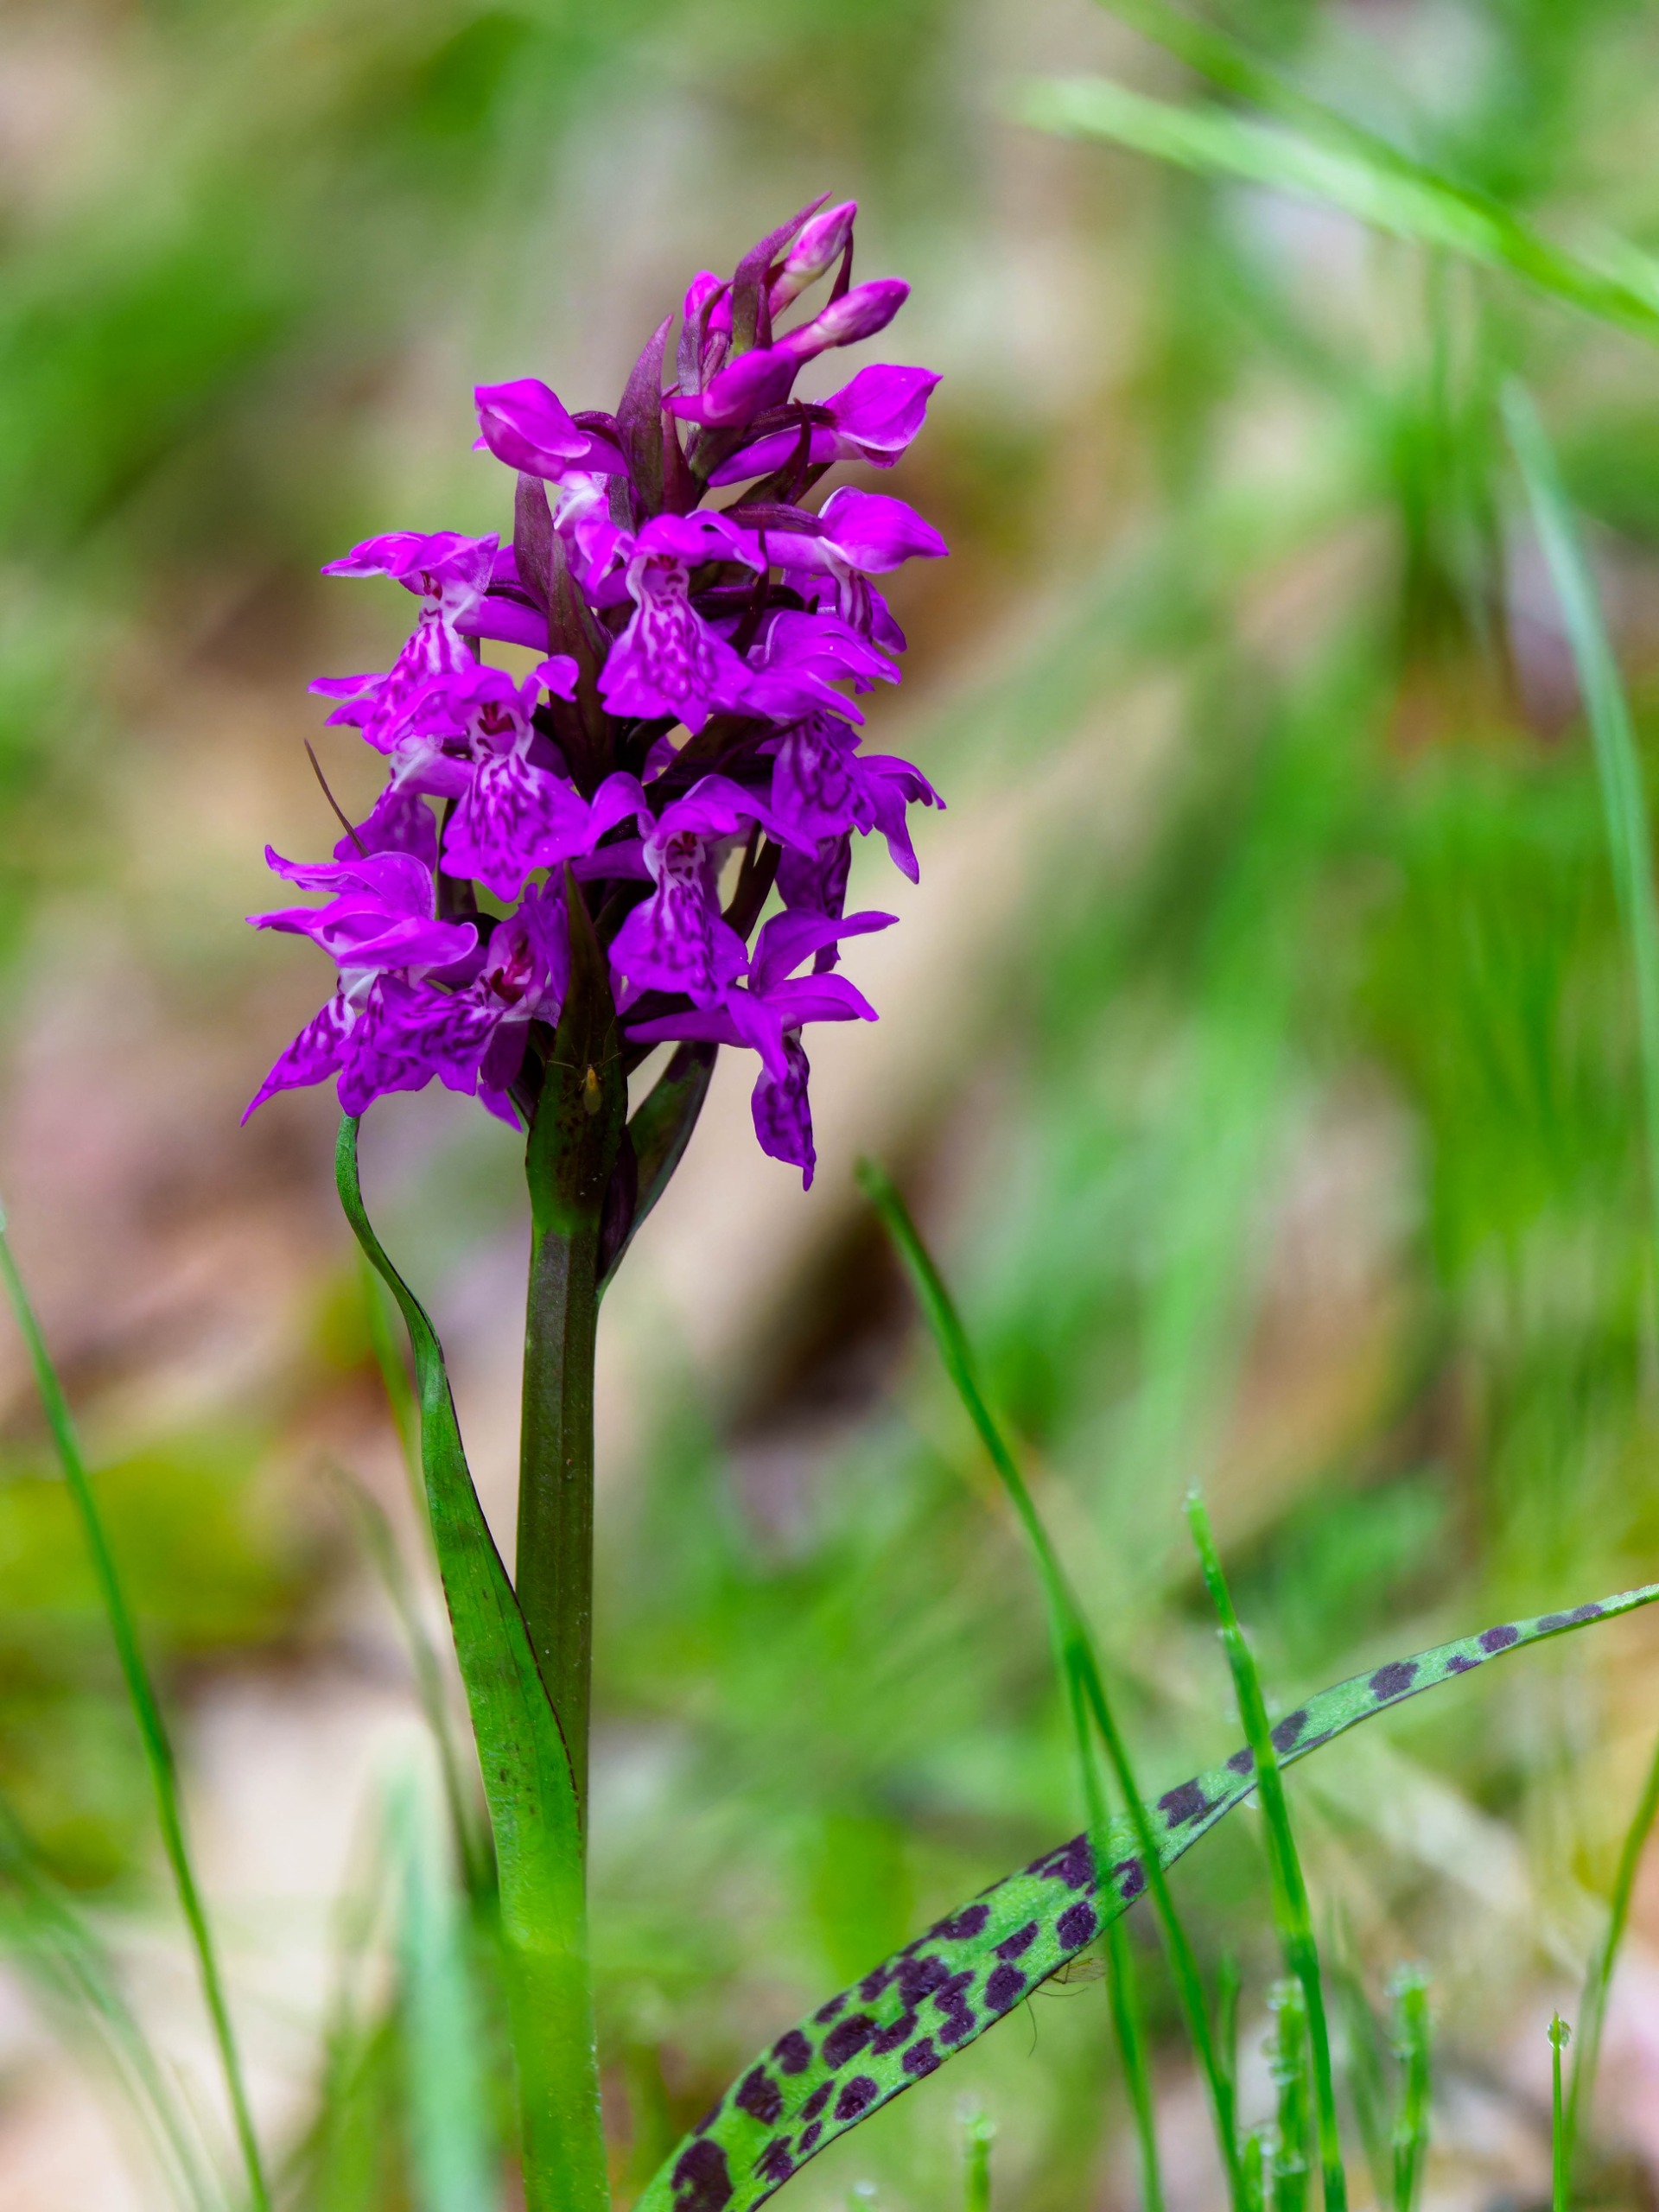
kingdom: Plantae
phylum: Tracheophyta
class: Liliopsida
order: Asparagales
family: Orchidaceae
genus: Dactylorhiza
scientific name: Dactylorhiza majalis
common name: Maj-gøgeurt
